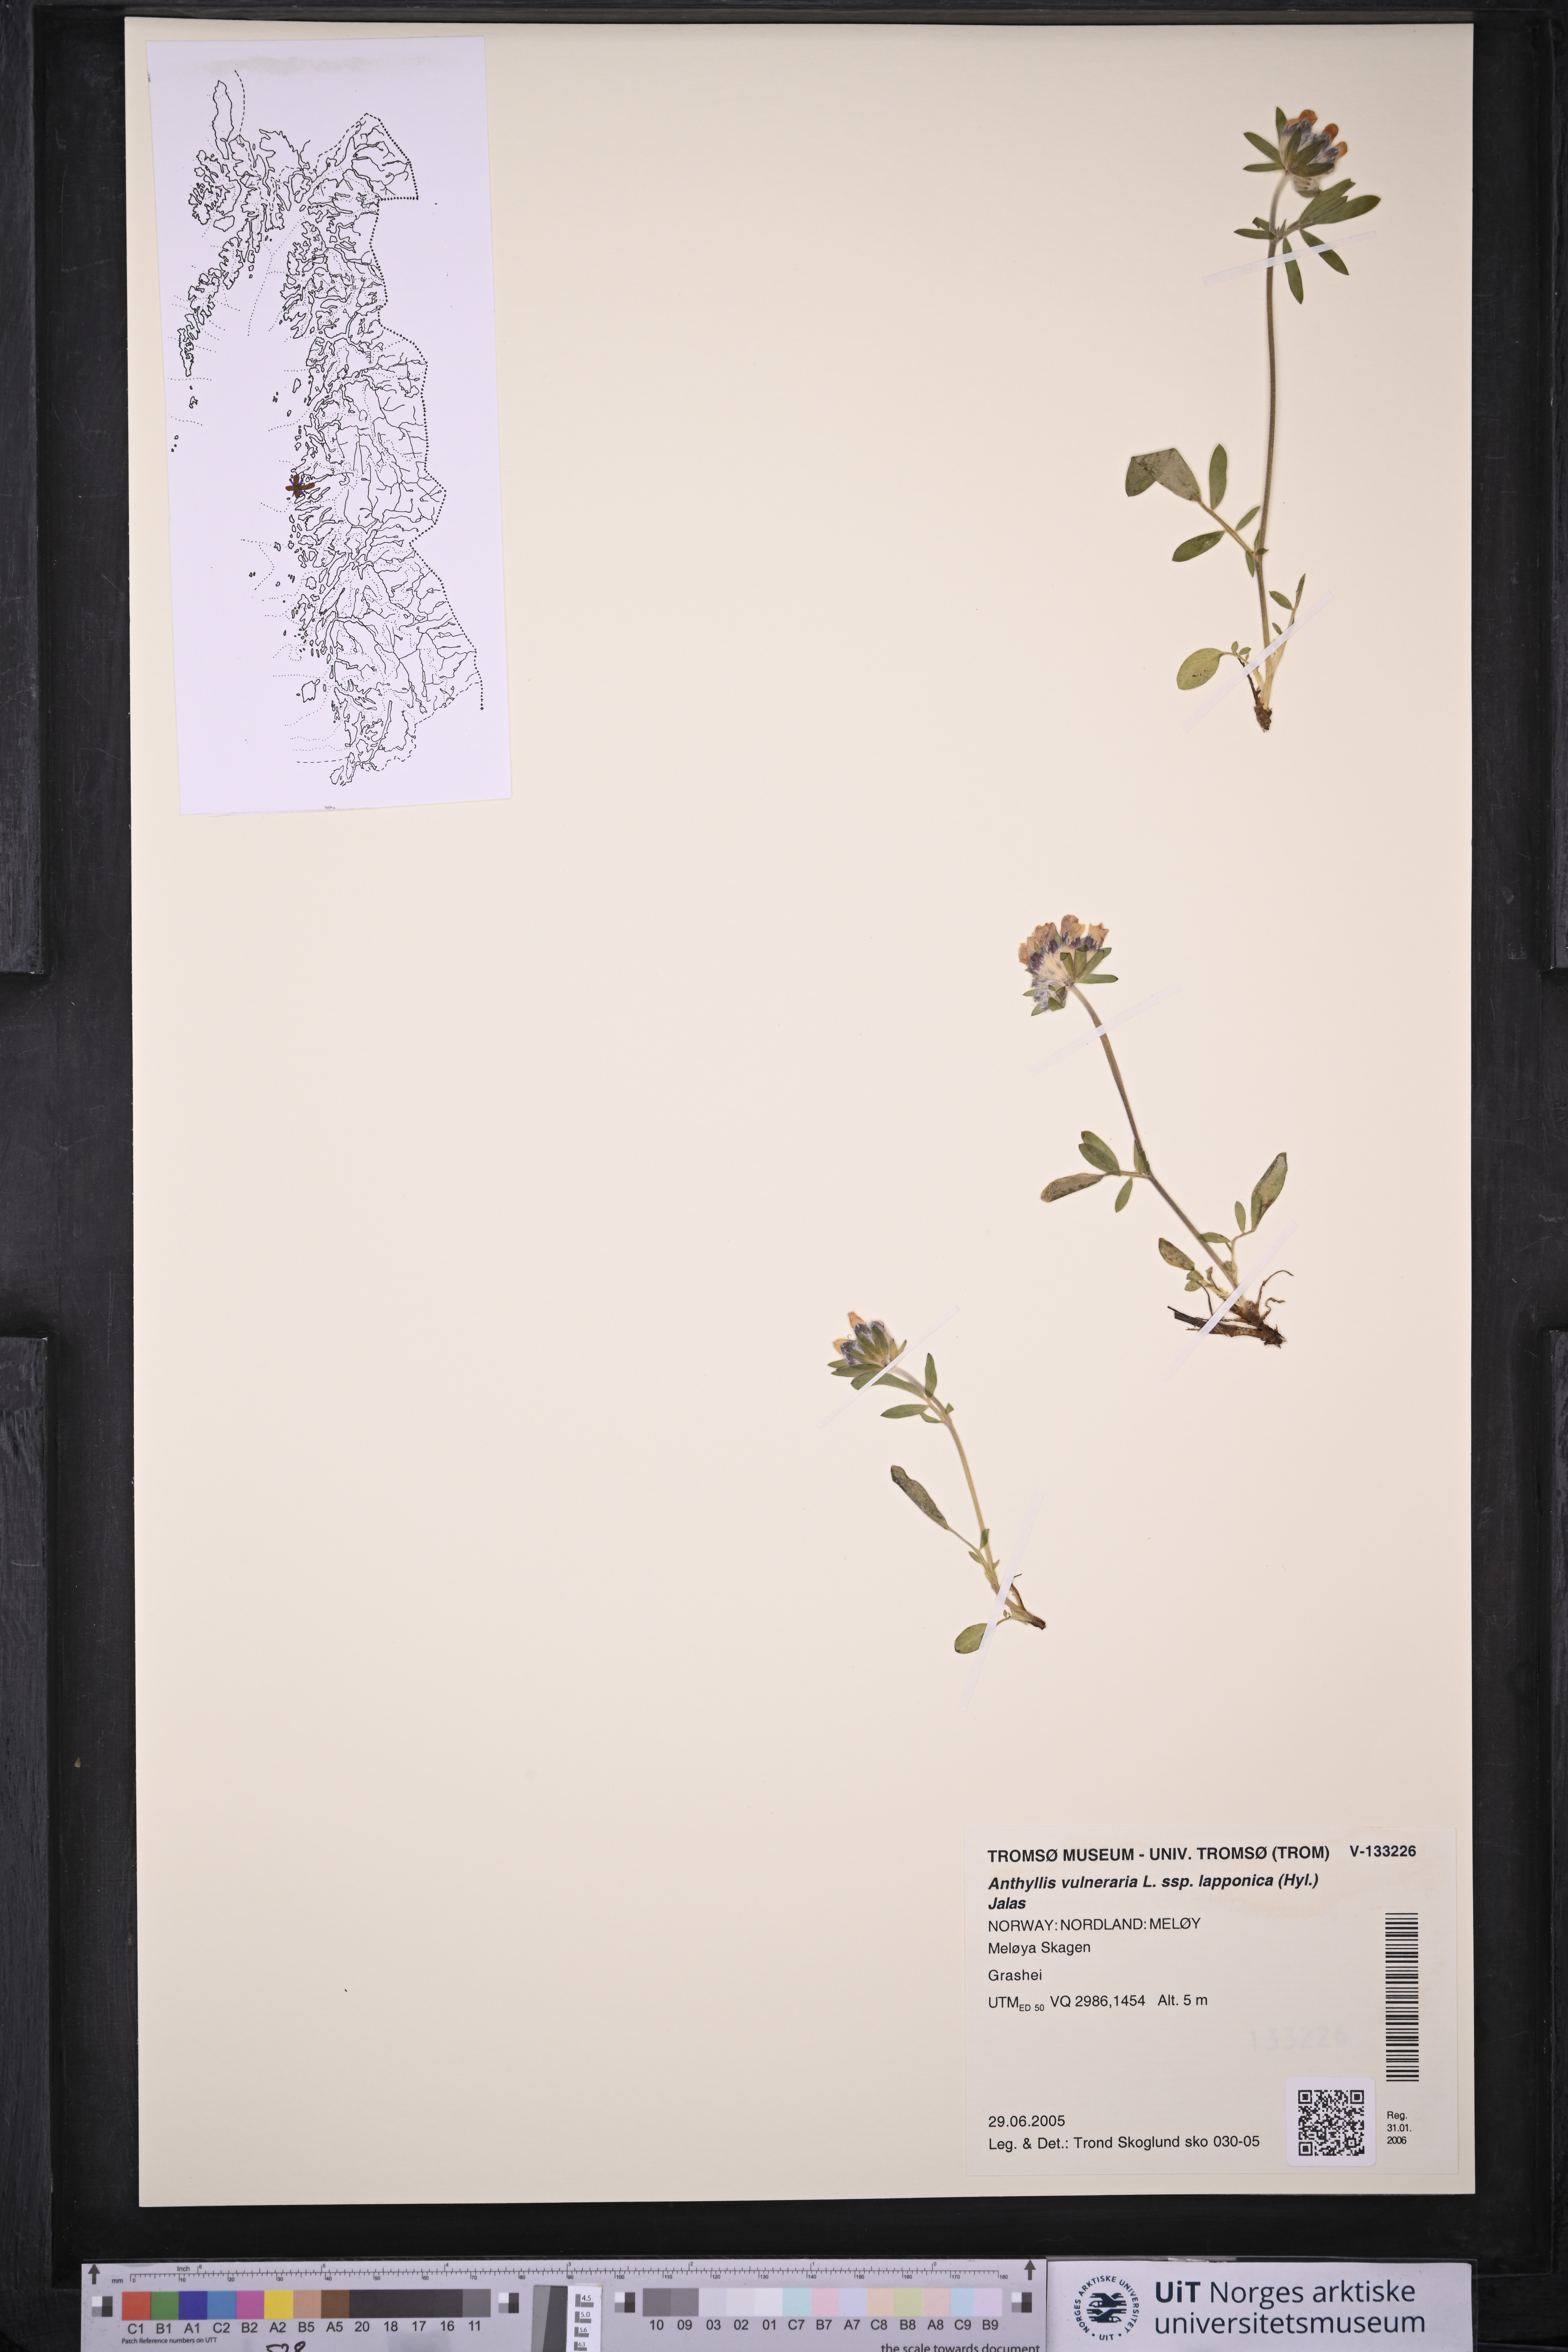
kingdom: Plantae
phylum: Tracheophyta
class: Magnoliopsida
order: Fabales
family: Fabaceae
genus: Anthyllis
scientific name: Anthyllis vulneraria
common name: Kidney vetch
